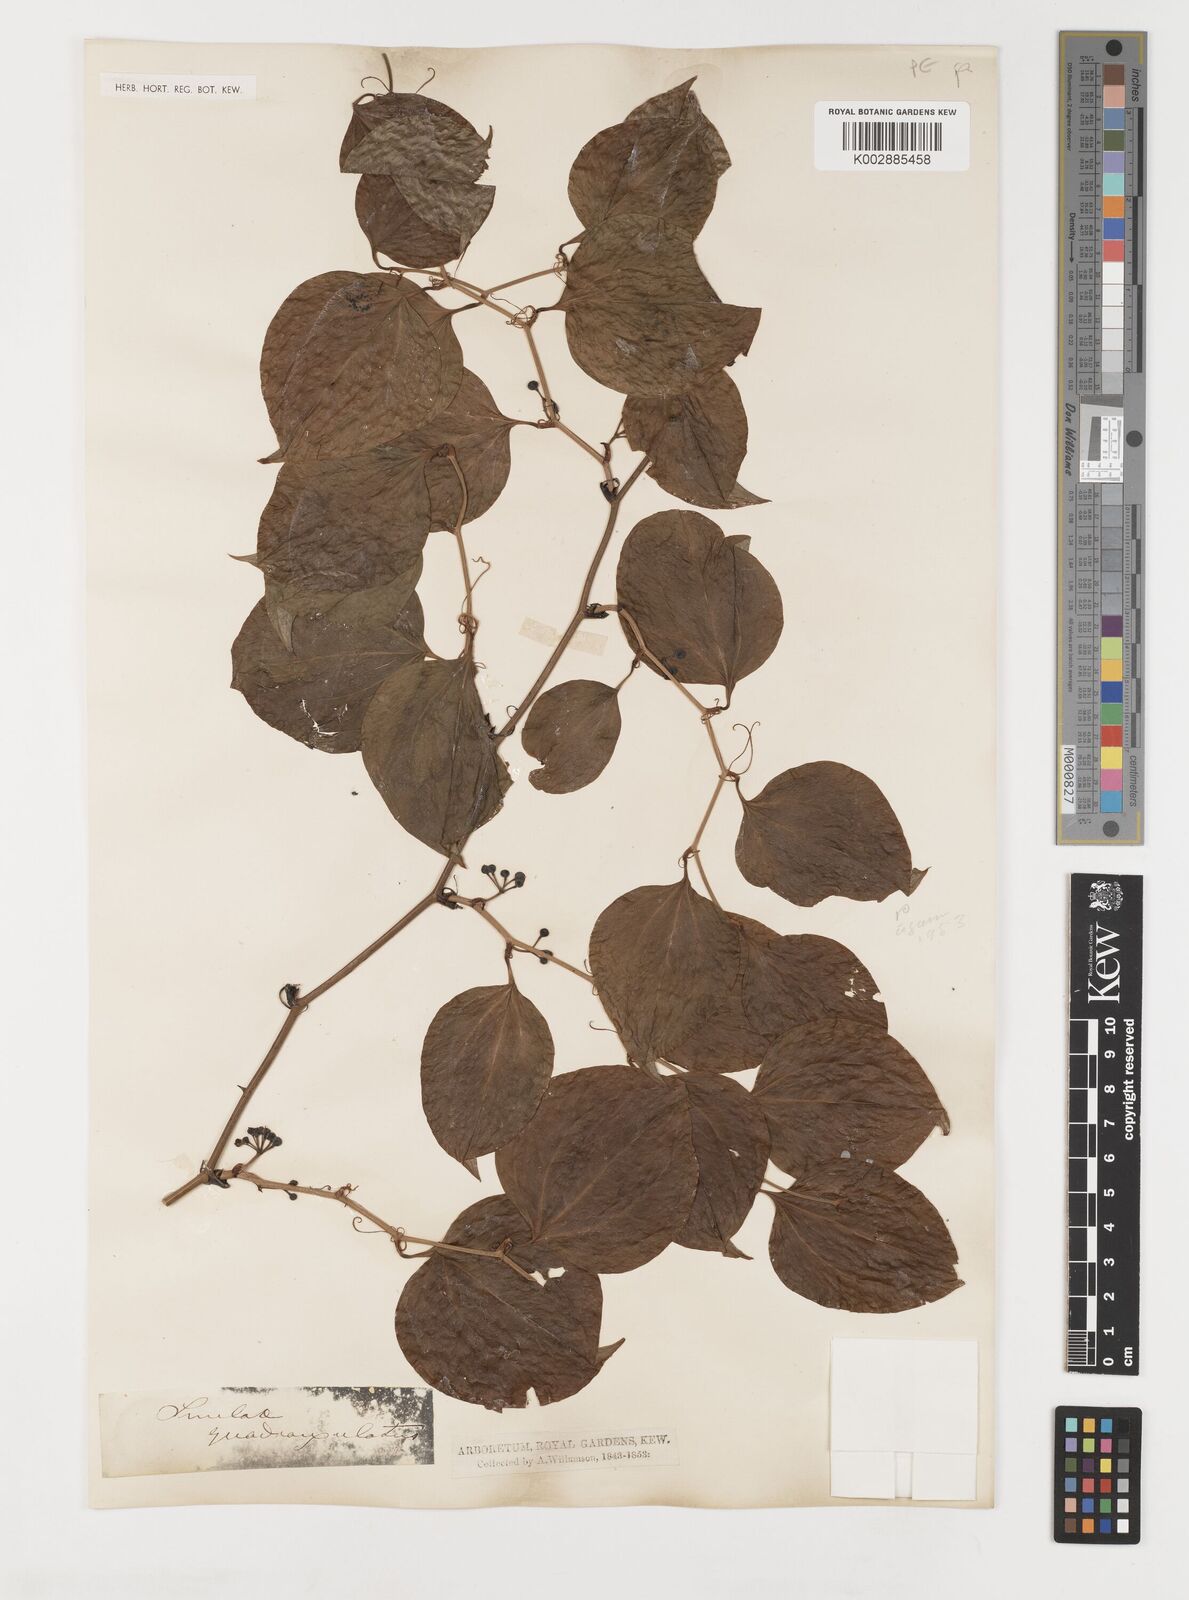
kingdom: Plantae
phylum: Tracheophyta
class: Liliopsida
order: Liliales
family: Smilacaceae
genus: Smilax
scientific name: Smilax
